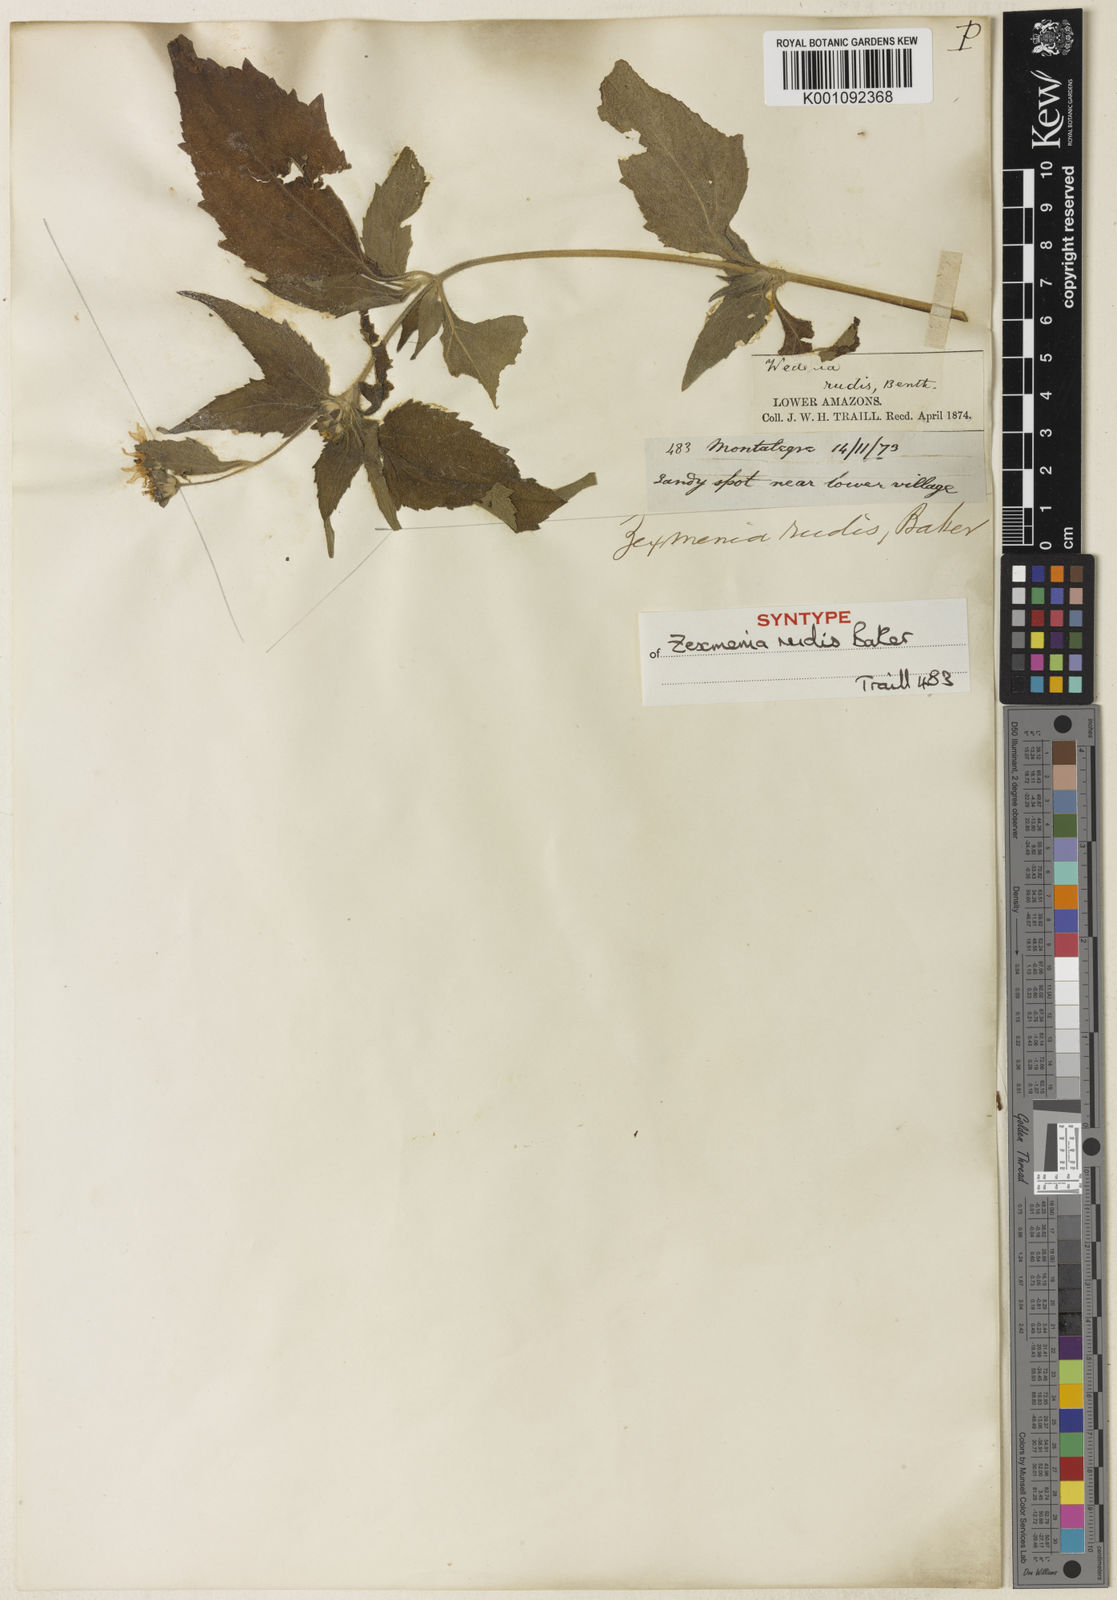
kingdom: Plantae
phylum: Tracheophyta
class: Magnoliopsida
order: Asterales
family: Asteraceae
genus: Wedelia
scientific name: Wedelia rudis
